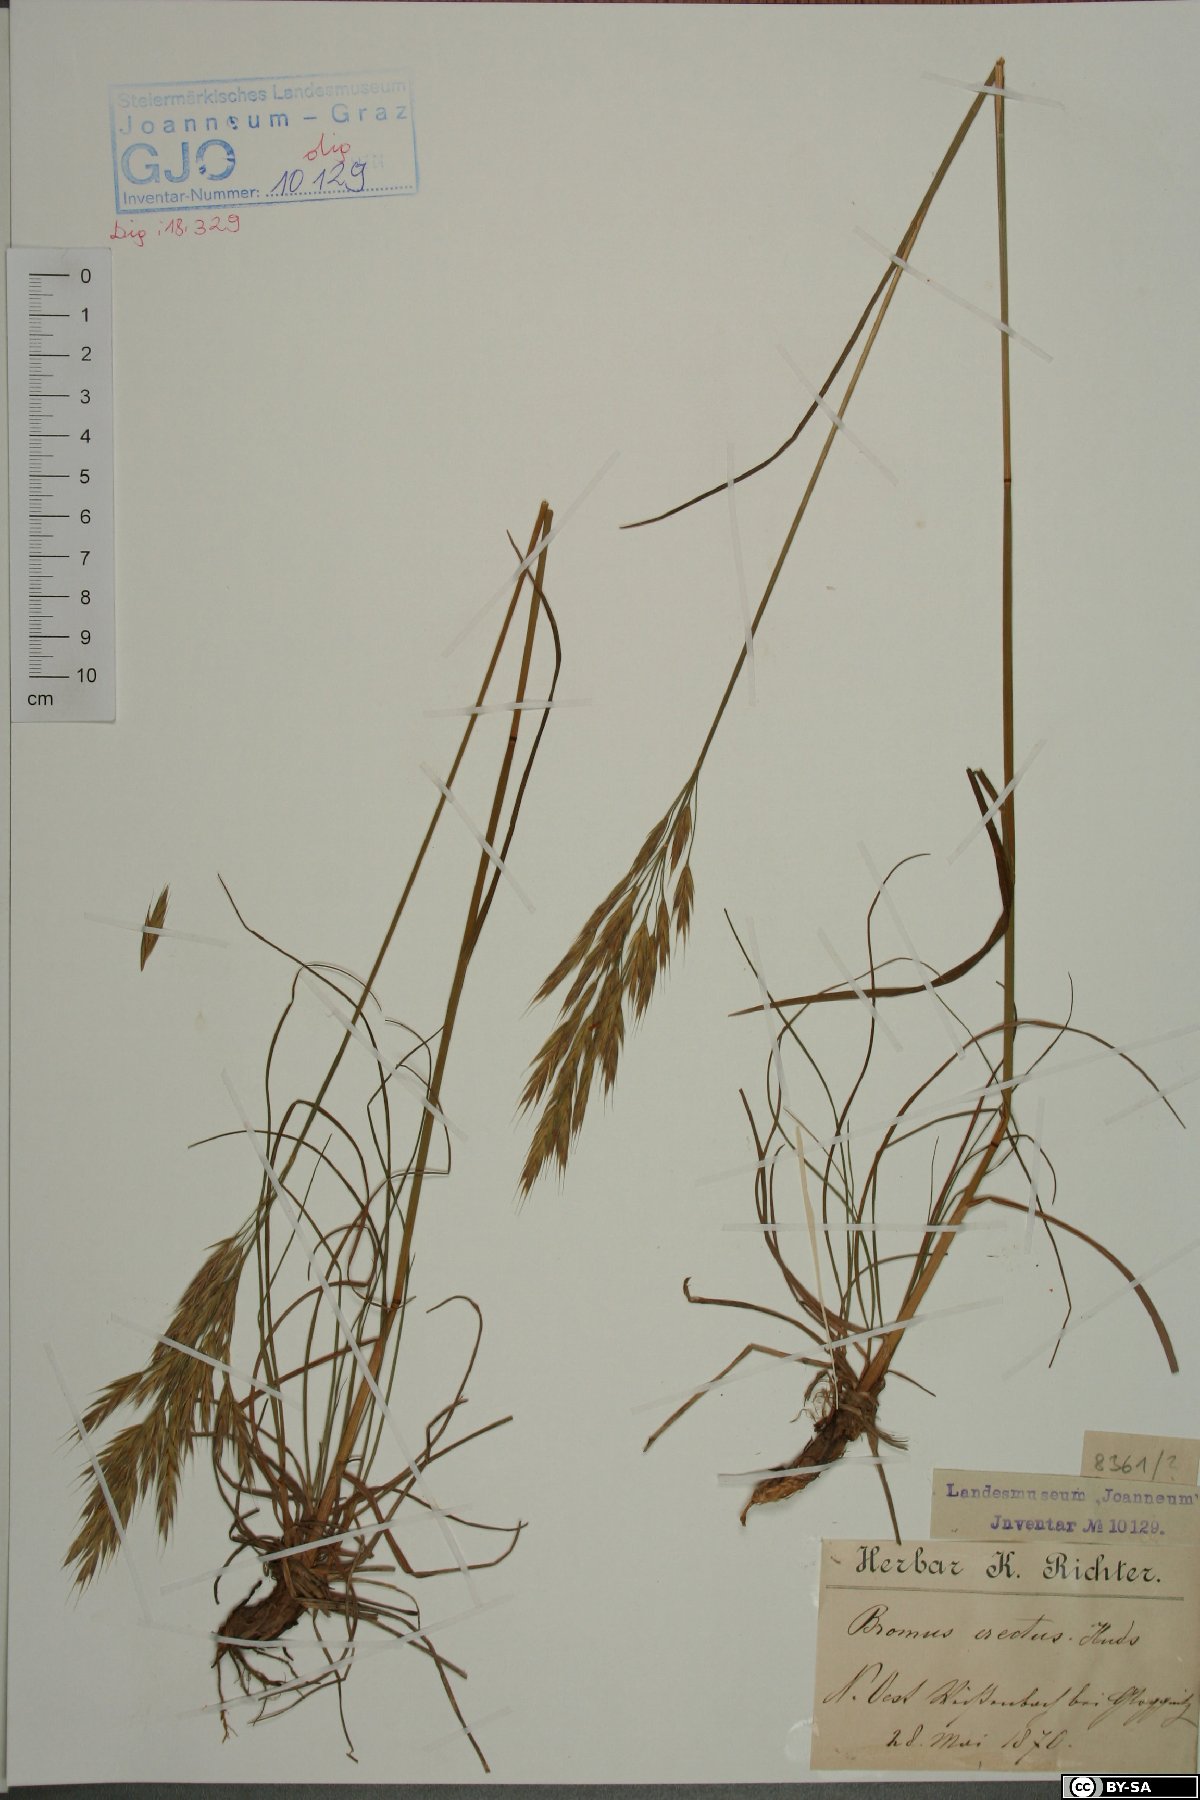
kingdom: Plantae
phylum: Tracheophyta
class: Liliopsida
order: Poales
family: Poaceae
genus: Bromus
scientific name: Bromus erectus
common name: Erect brome
